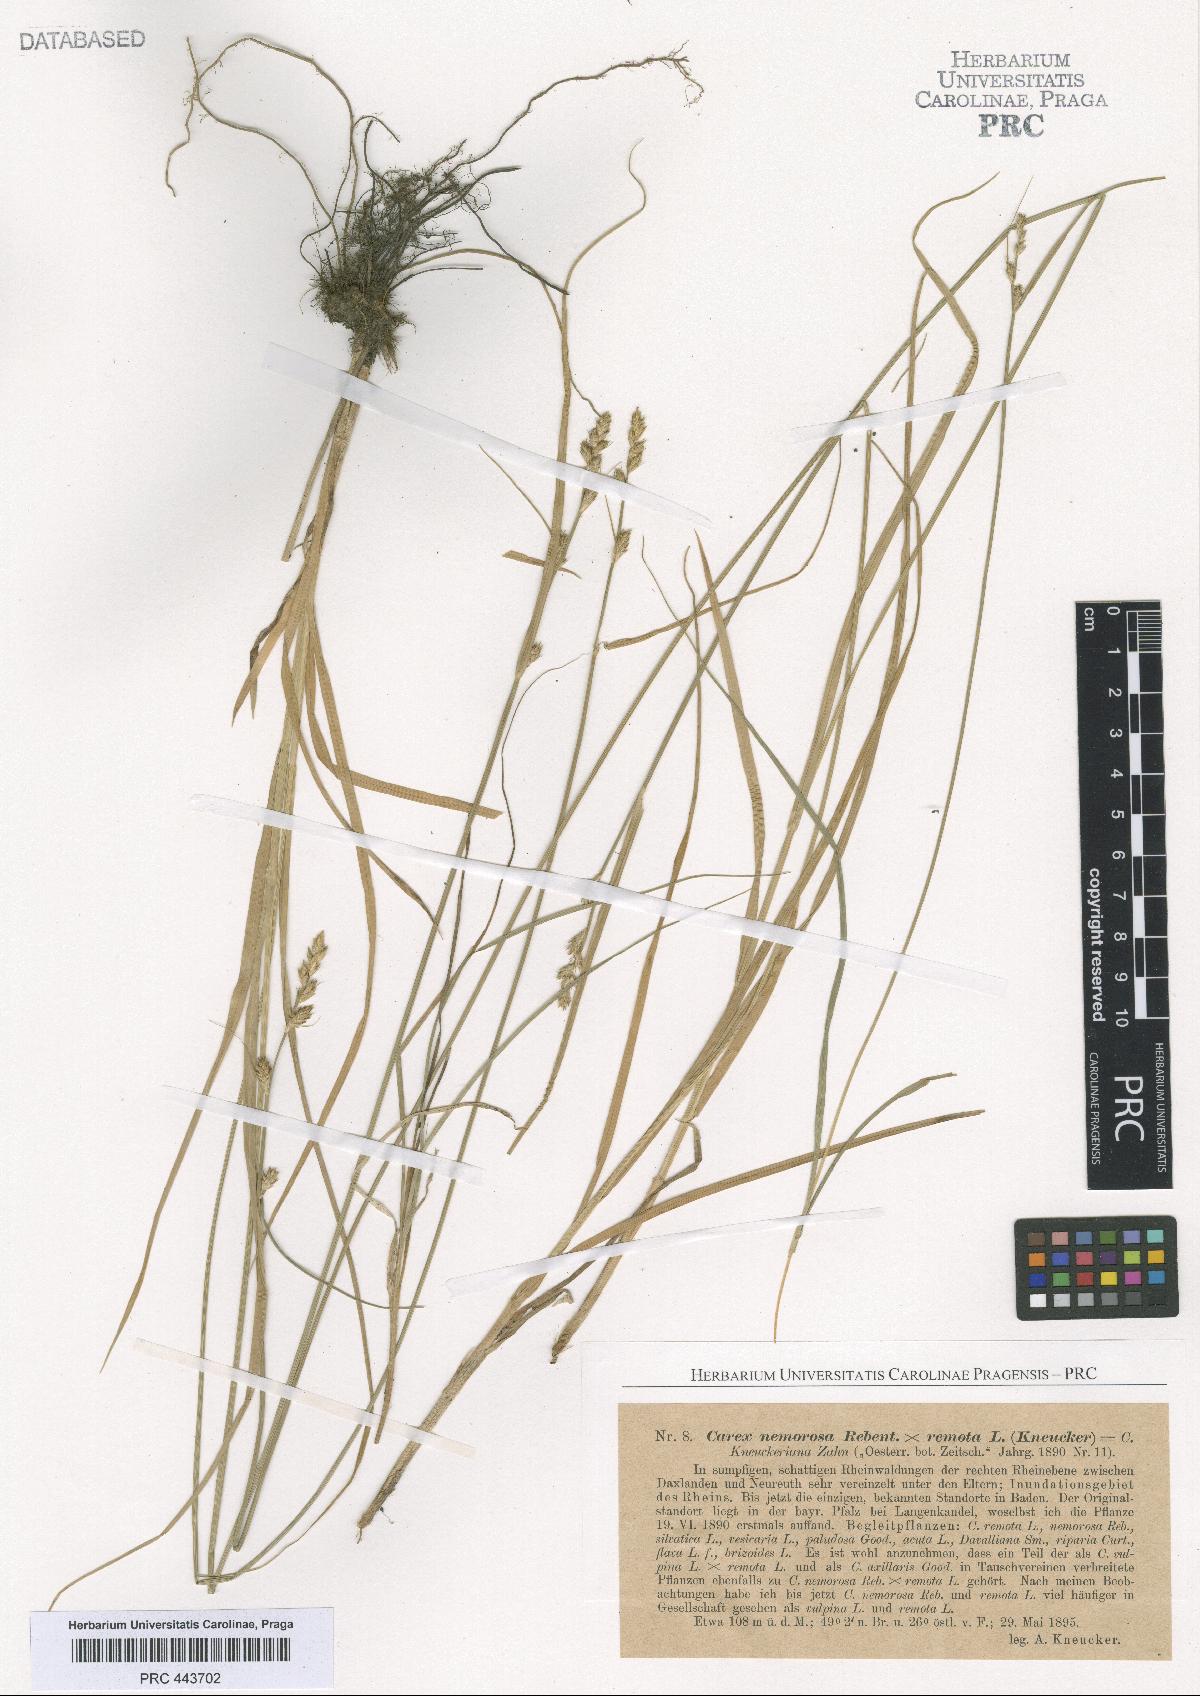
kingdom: Plantae
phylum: Tracheophyta
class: Liliopsida
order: Poales
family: Cyperaceae
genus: Carex
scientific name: Carex pseudoaxillaris
